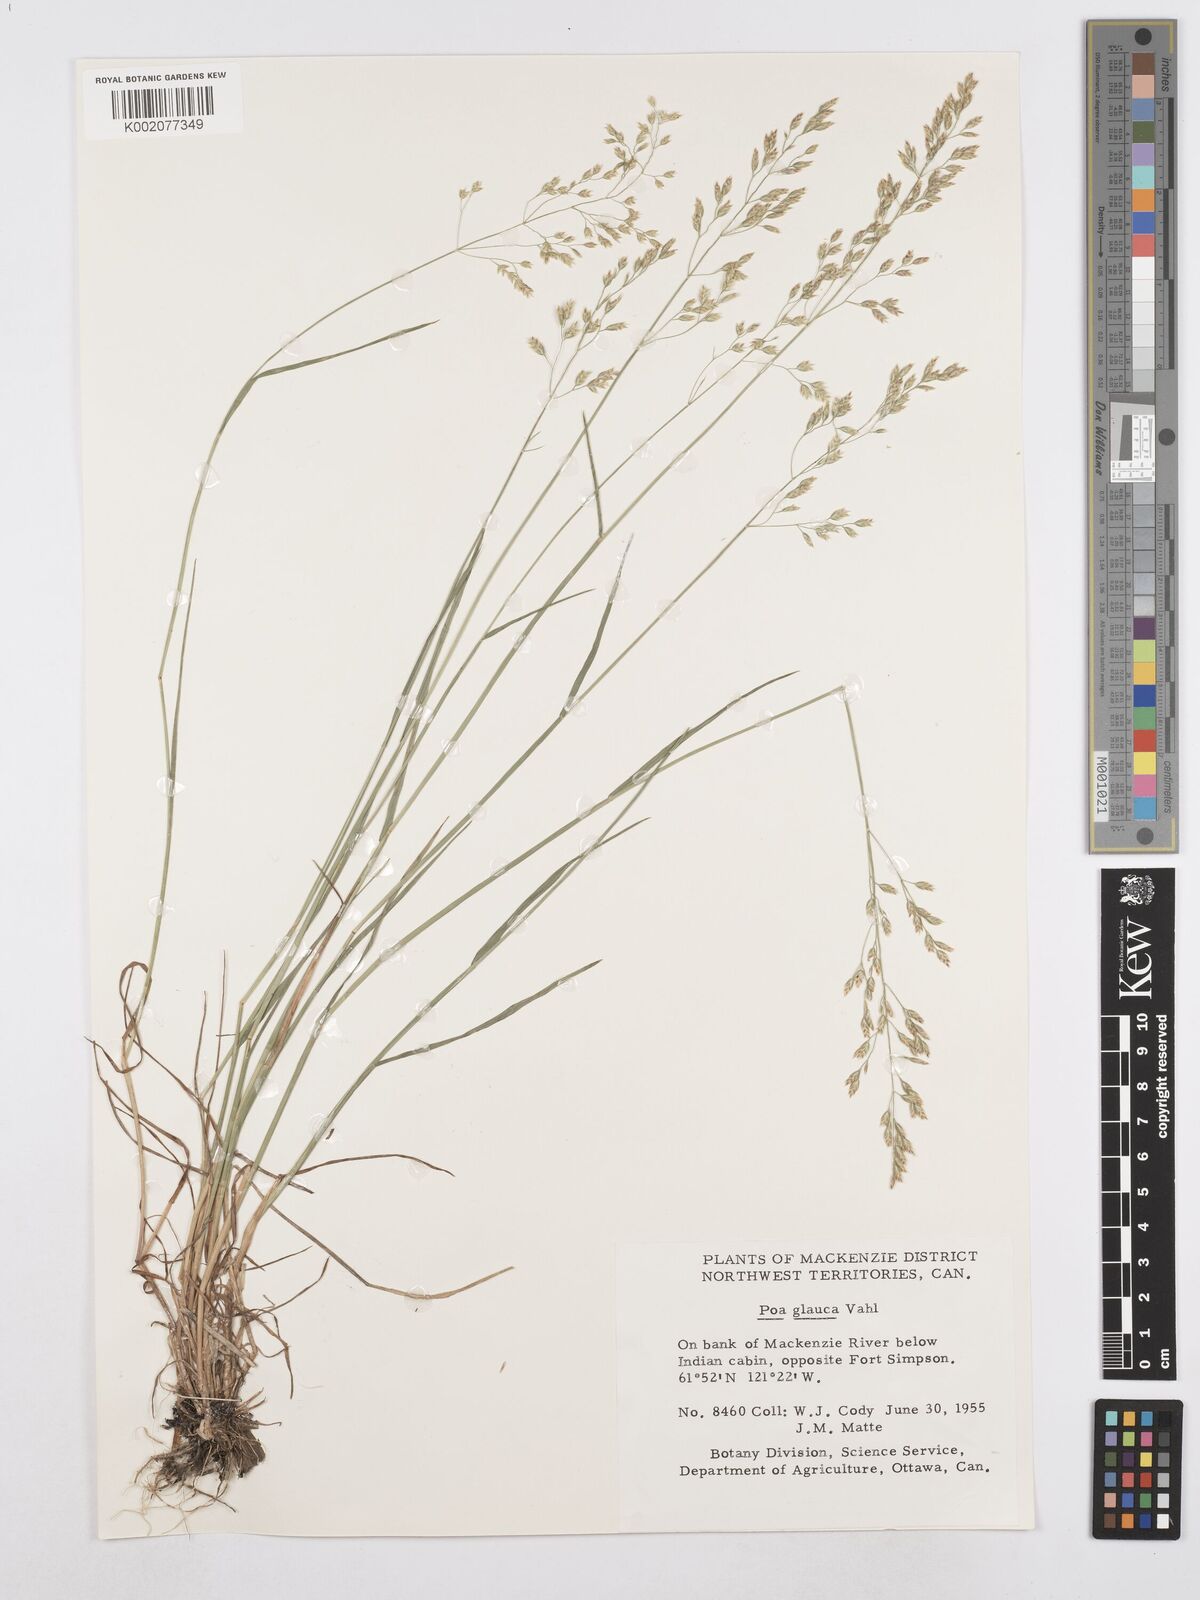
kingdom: Plantae
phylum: Tracheophyta
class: Liliopsida
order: Poales
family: Poaceae
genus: Poa
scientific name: Poa glauca
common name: Glaucous bluegrass
